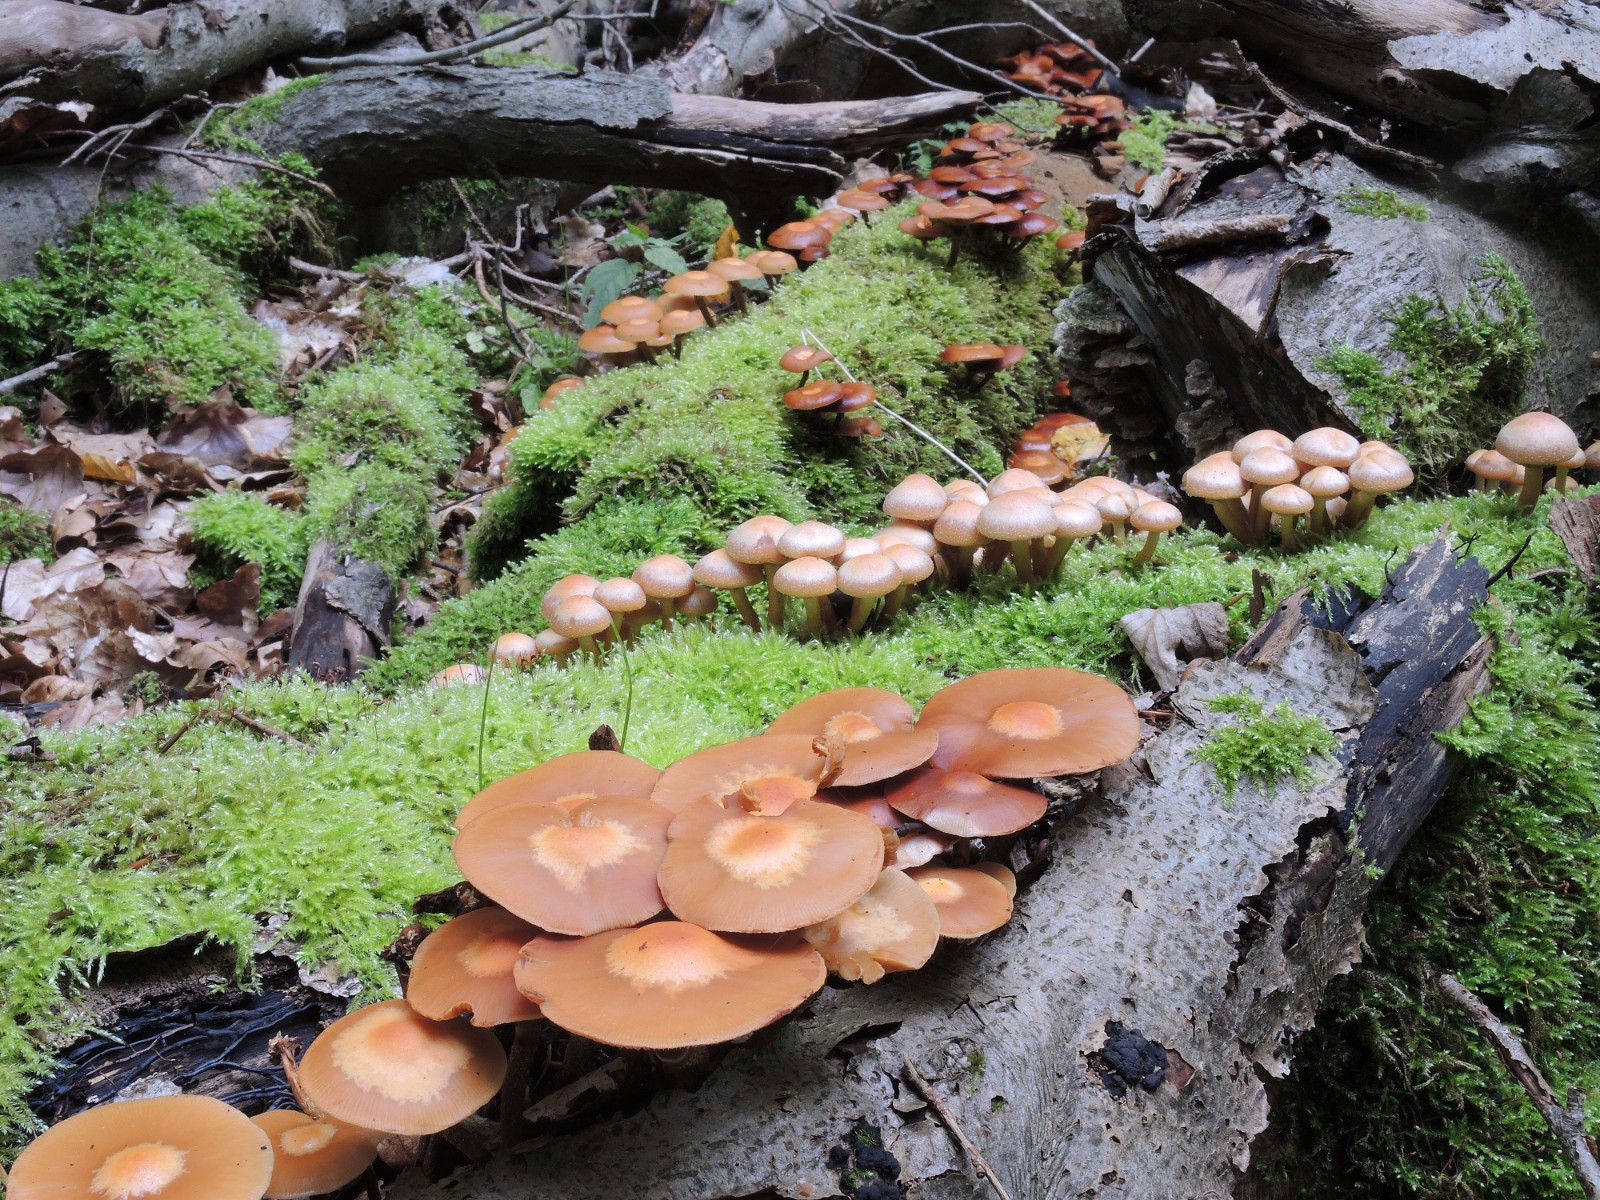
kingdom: Fungi
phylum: Basidiomycota
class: Agaricomycetes
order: Agaricales
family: Strophariaceae
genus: Kuehneromyces
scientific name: Kuehneromyces mutabilis
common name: foranderlig skælhat
